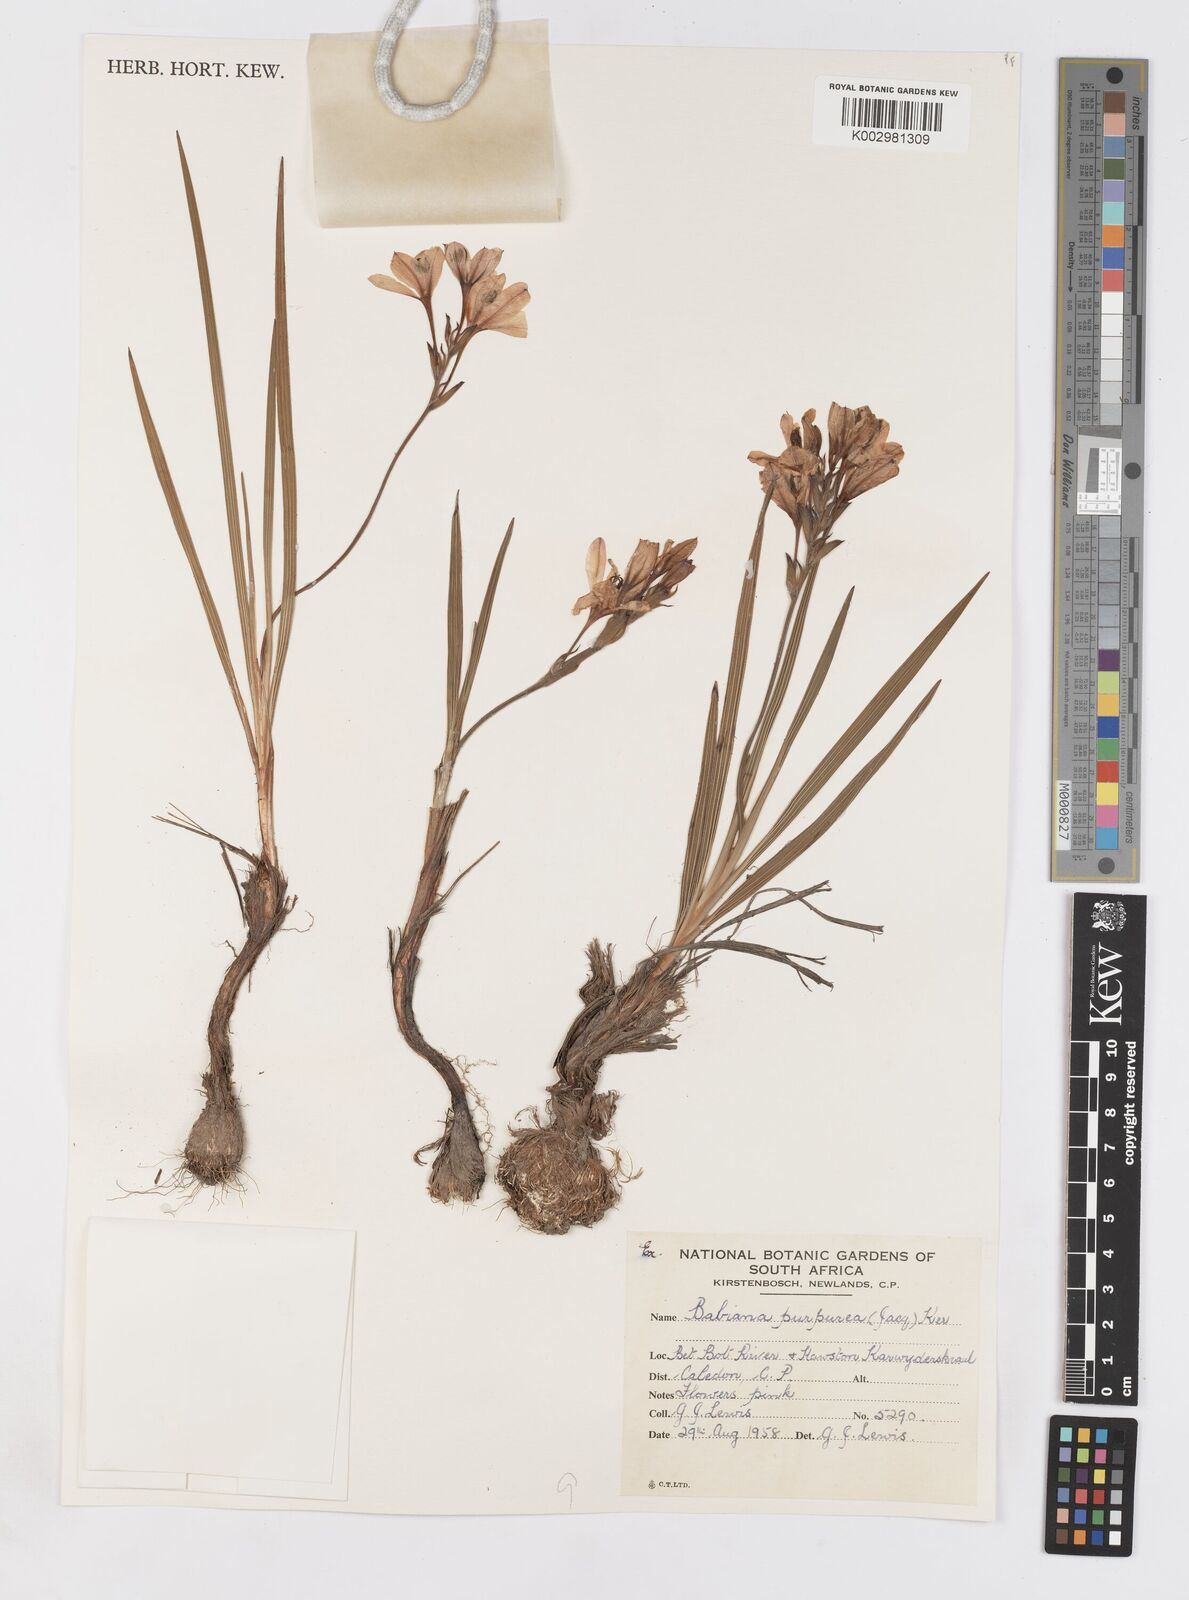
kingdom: Plantae
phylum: Tracheophyta
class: Liliopsida
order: Asparagales
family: Iridaceae
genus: Babiana
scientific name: Babiana purpurea
